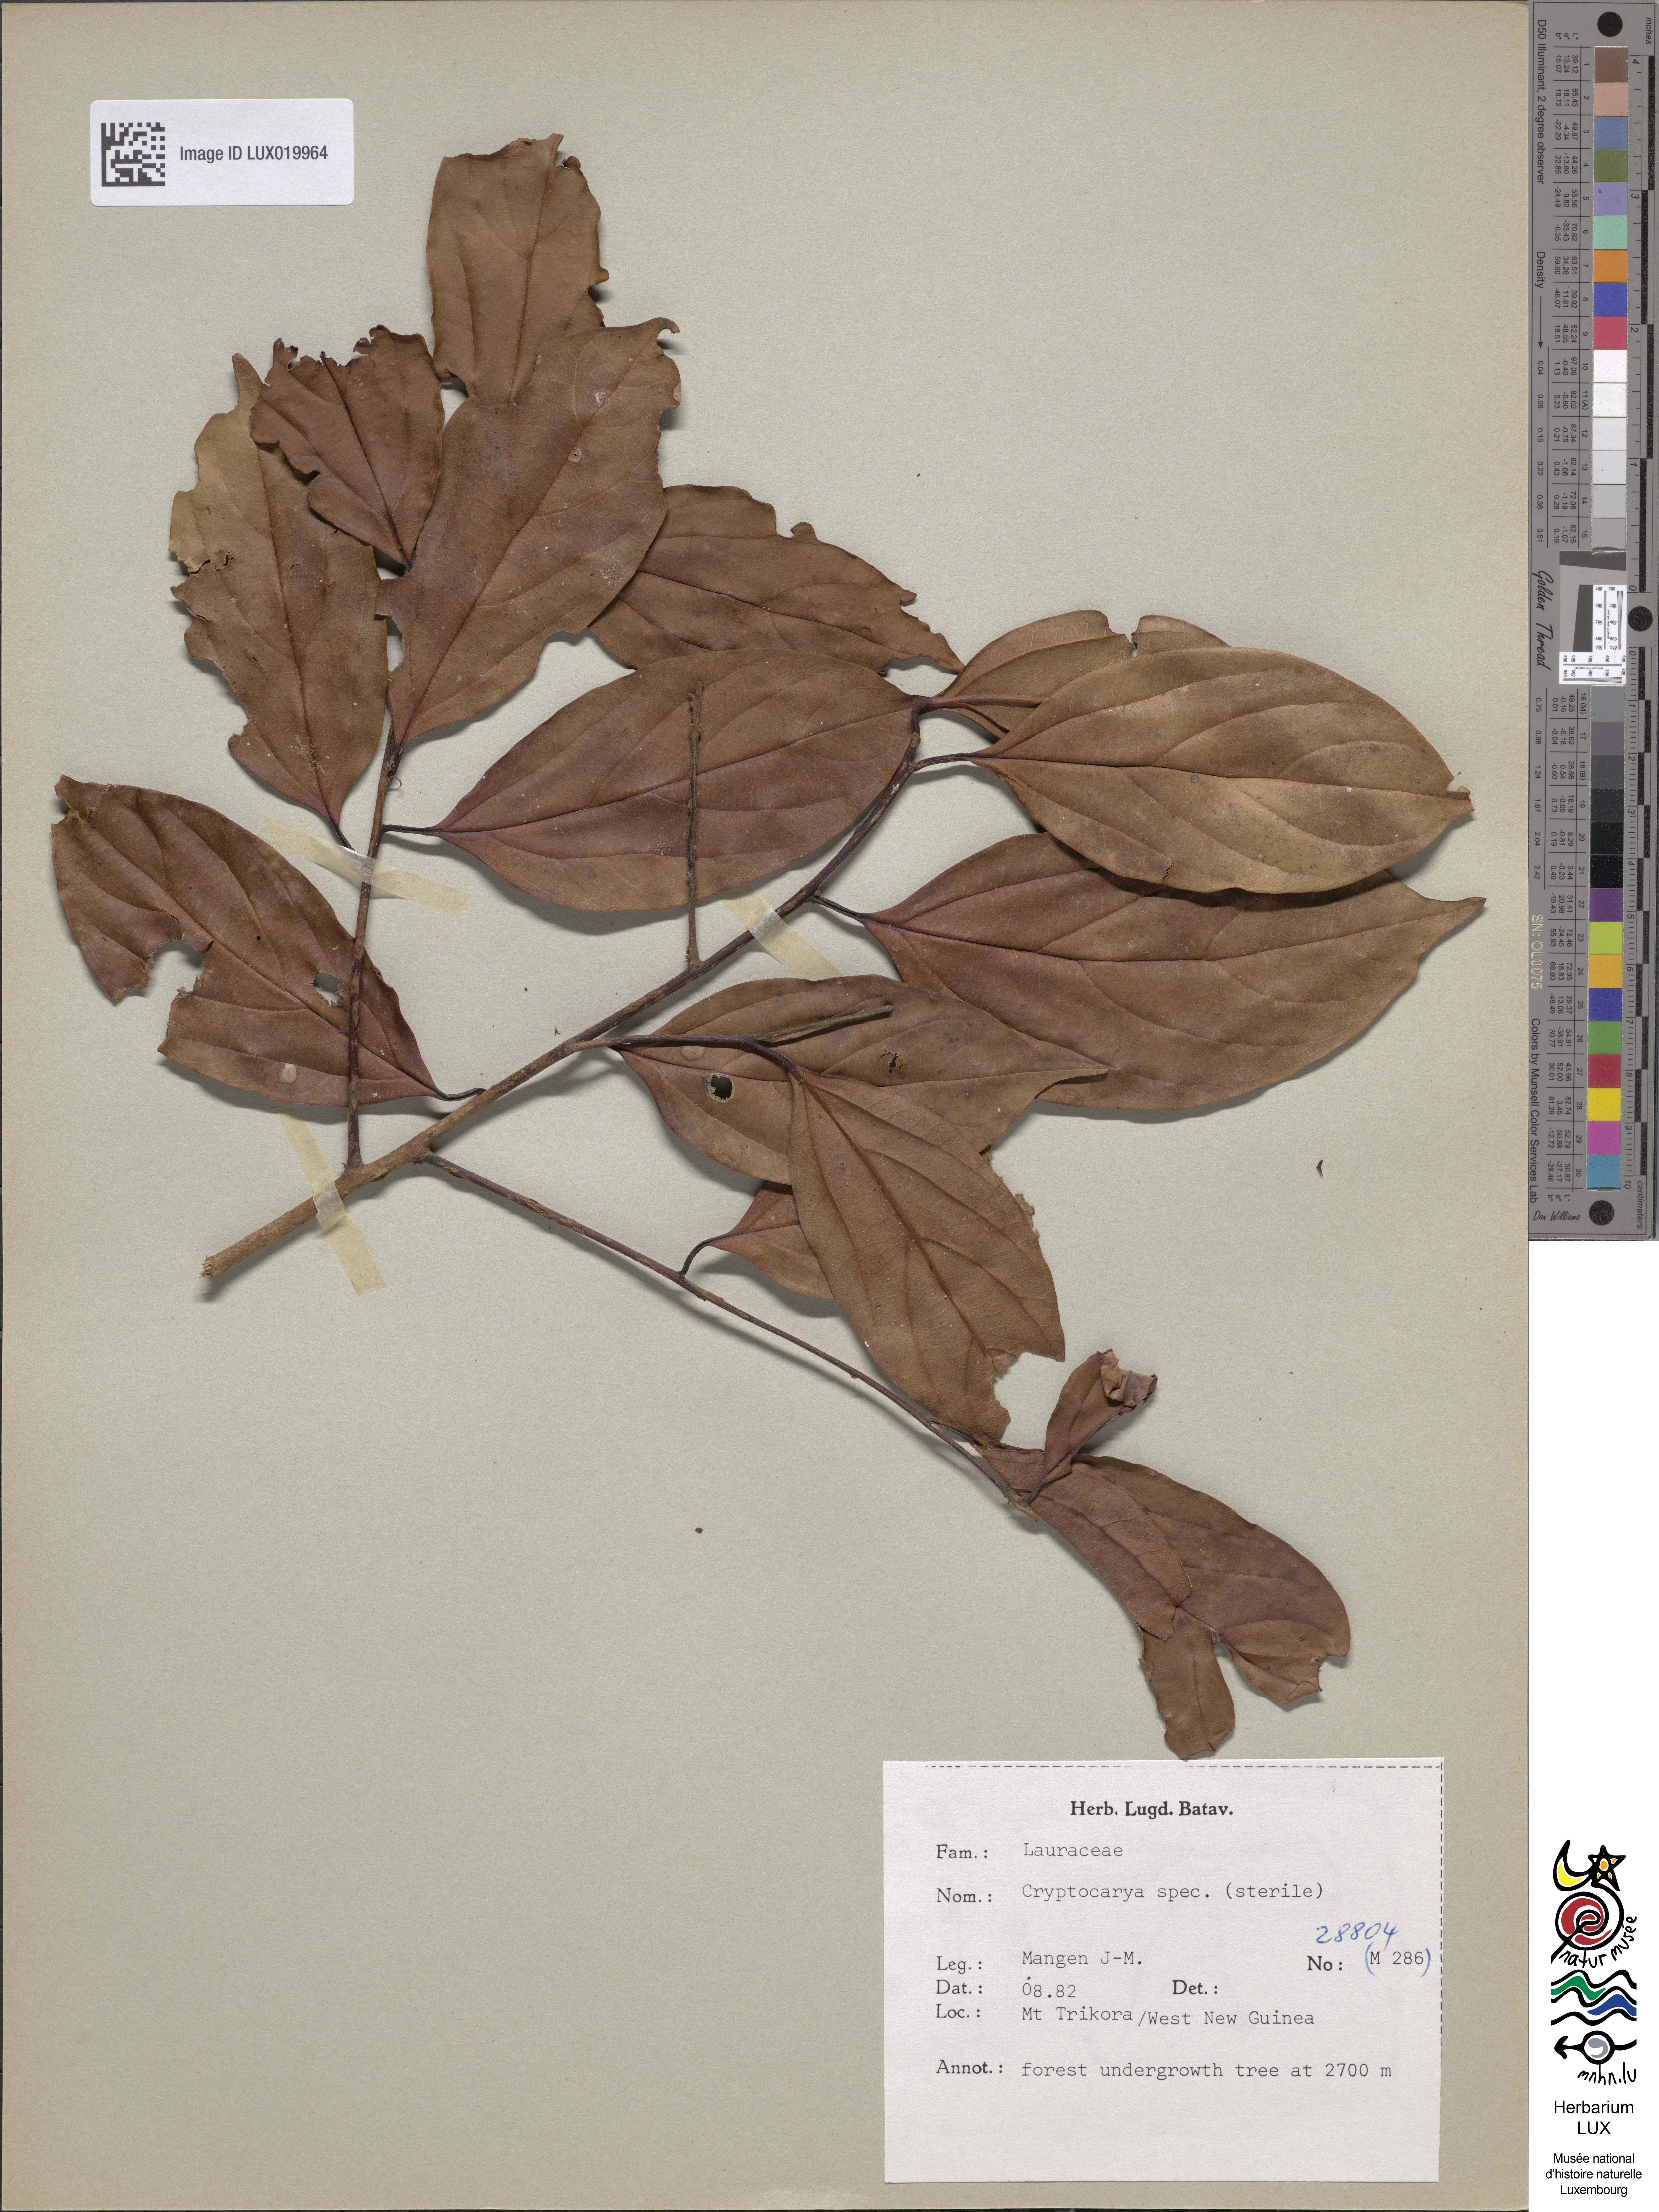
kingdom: Plantae
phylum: Tracheophyta
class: Magnoliopsida
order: Laurales
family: Lauraceae
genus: Cryptocarya
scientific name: Cryptocarya
